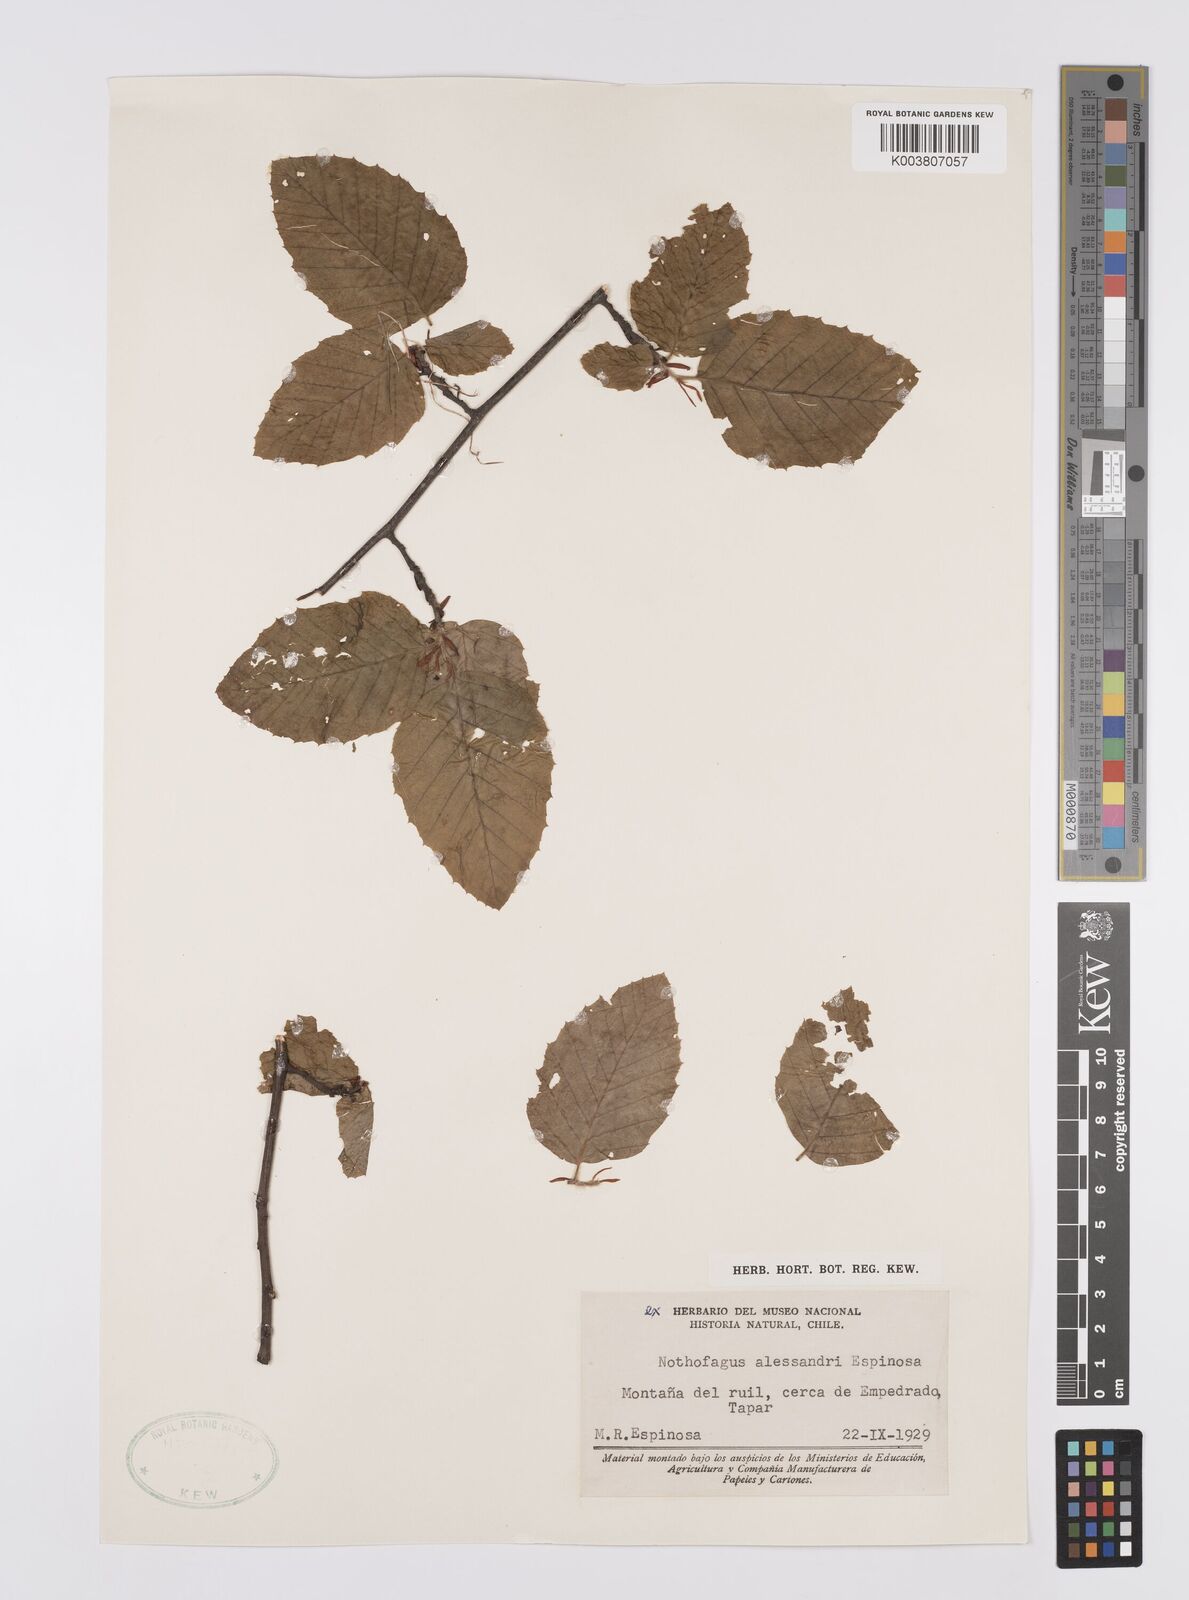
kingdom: Plantae
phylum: Tracheophyta
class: Magnoliopsida
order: Fagales
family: Nothofagaceae
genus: Nothofagus
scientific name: Nothofagus alessandrii
